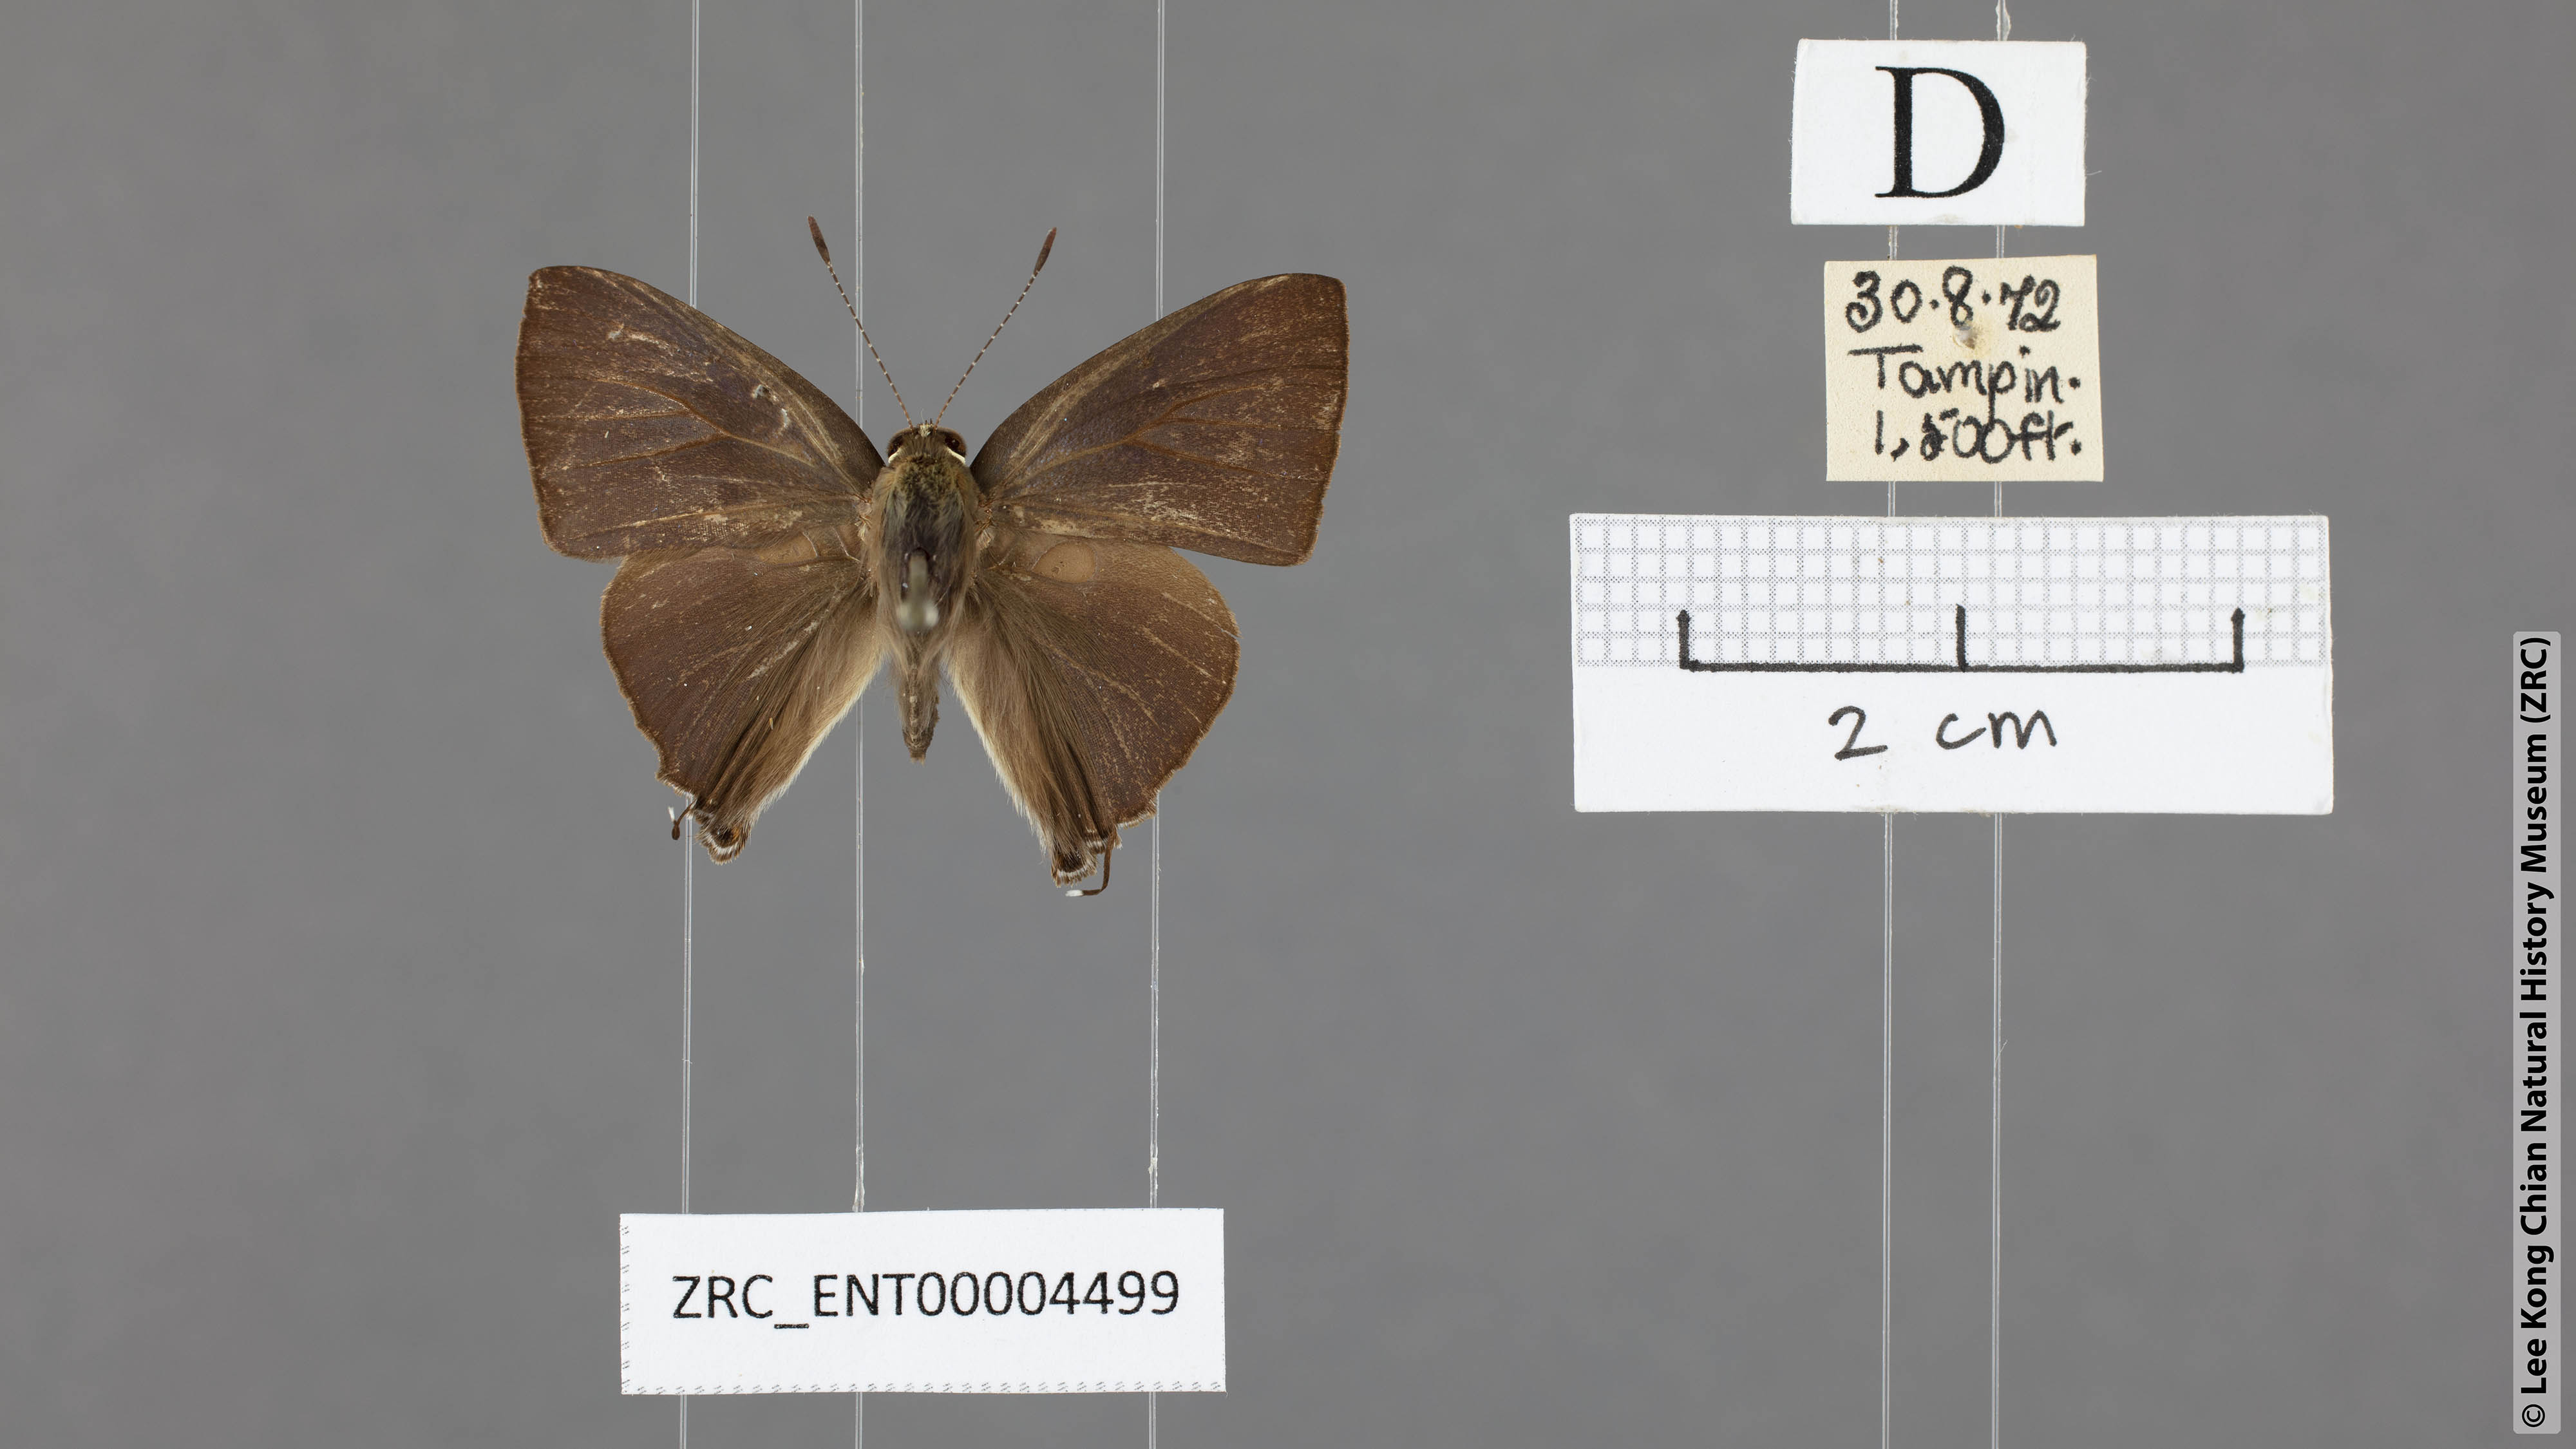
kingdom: Animalia
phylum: Arthropoda
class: Insecta
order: Lepidoptera
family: Lycaenidae
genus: Rapala
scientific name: Rapala manea
